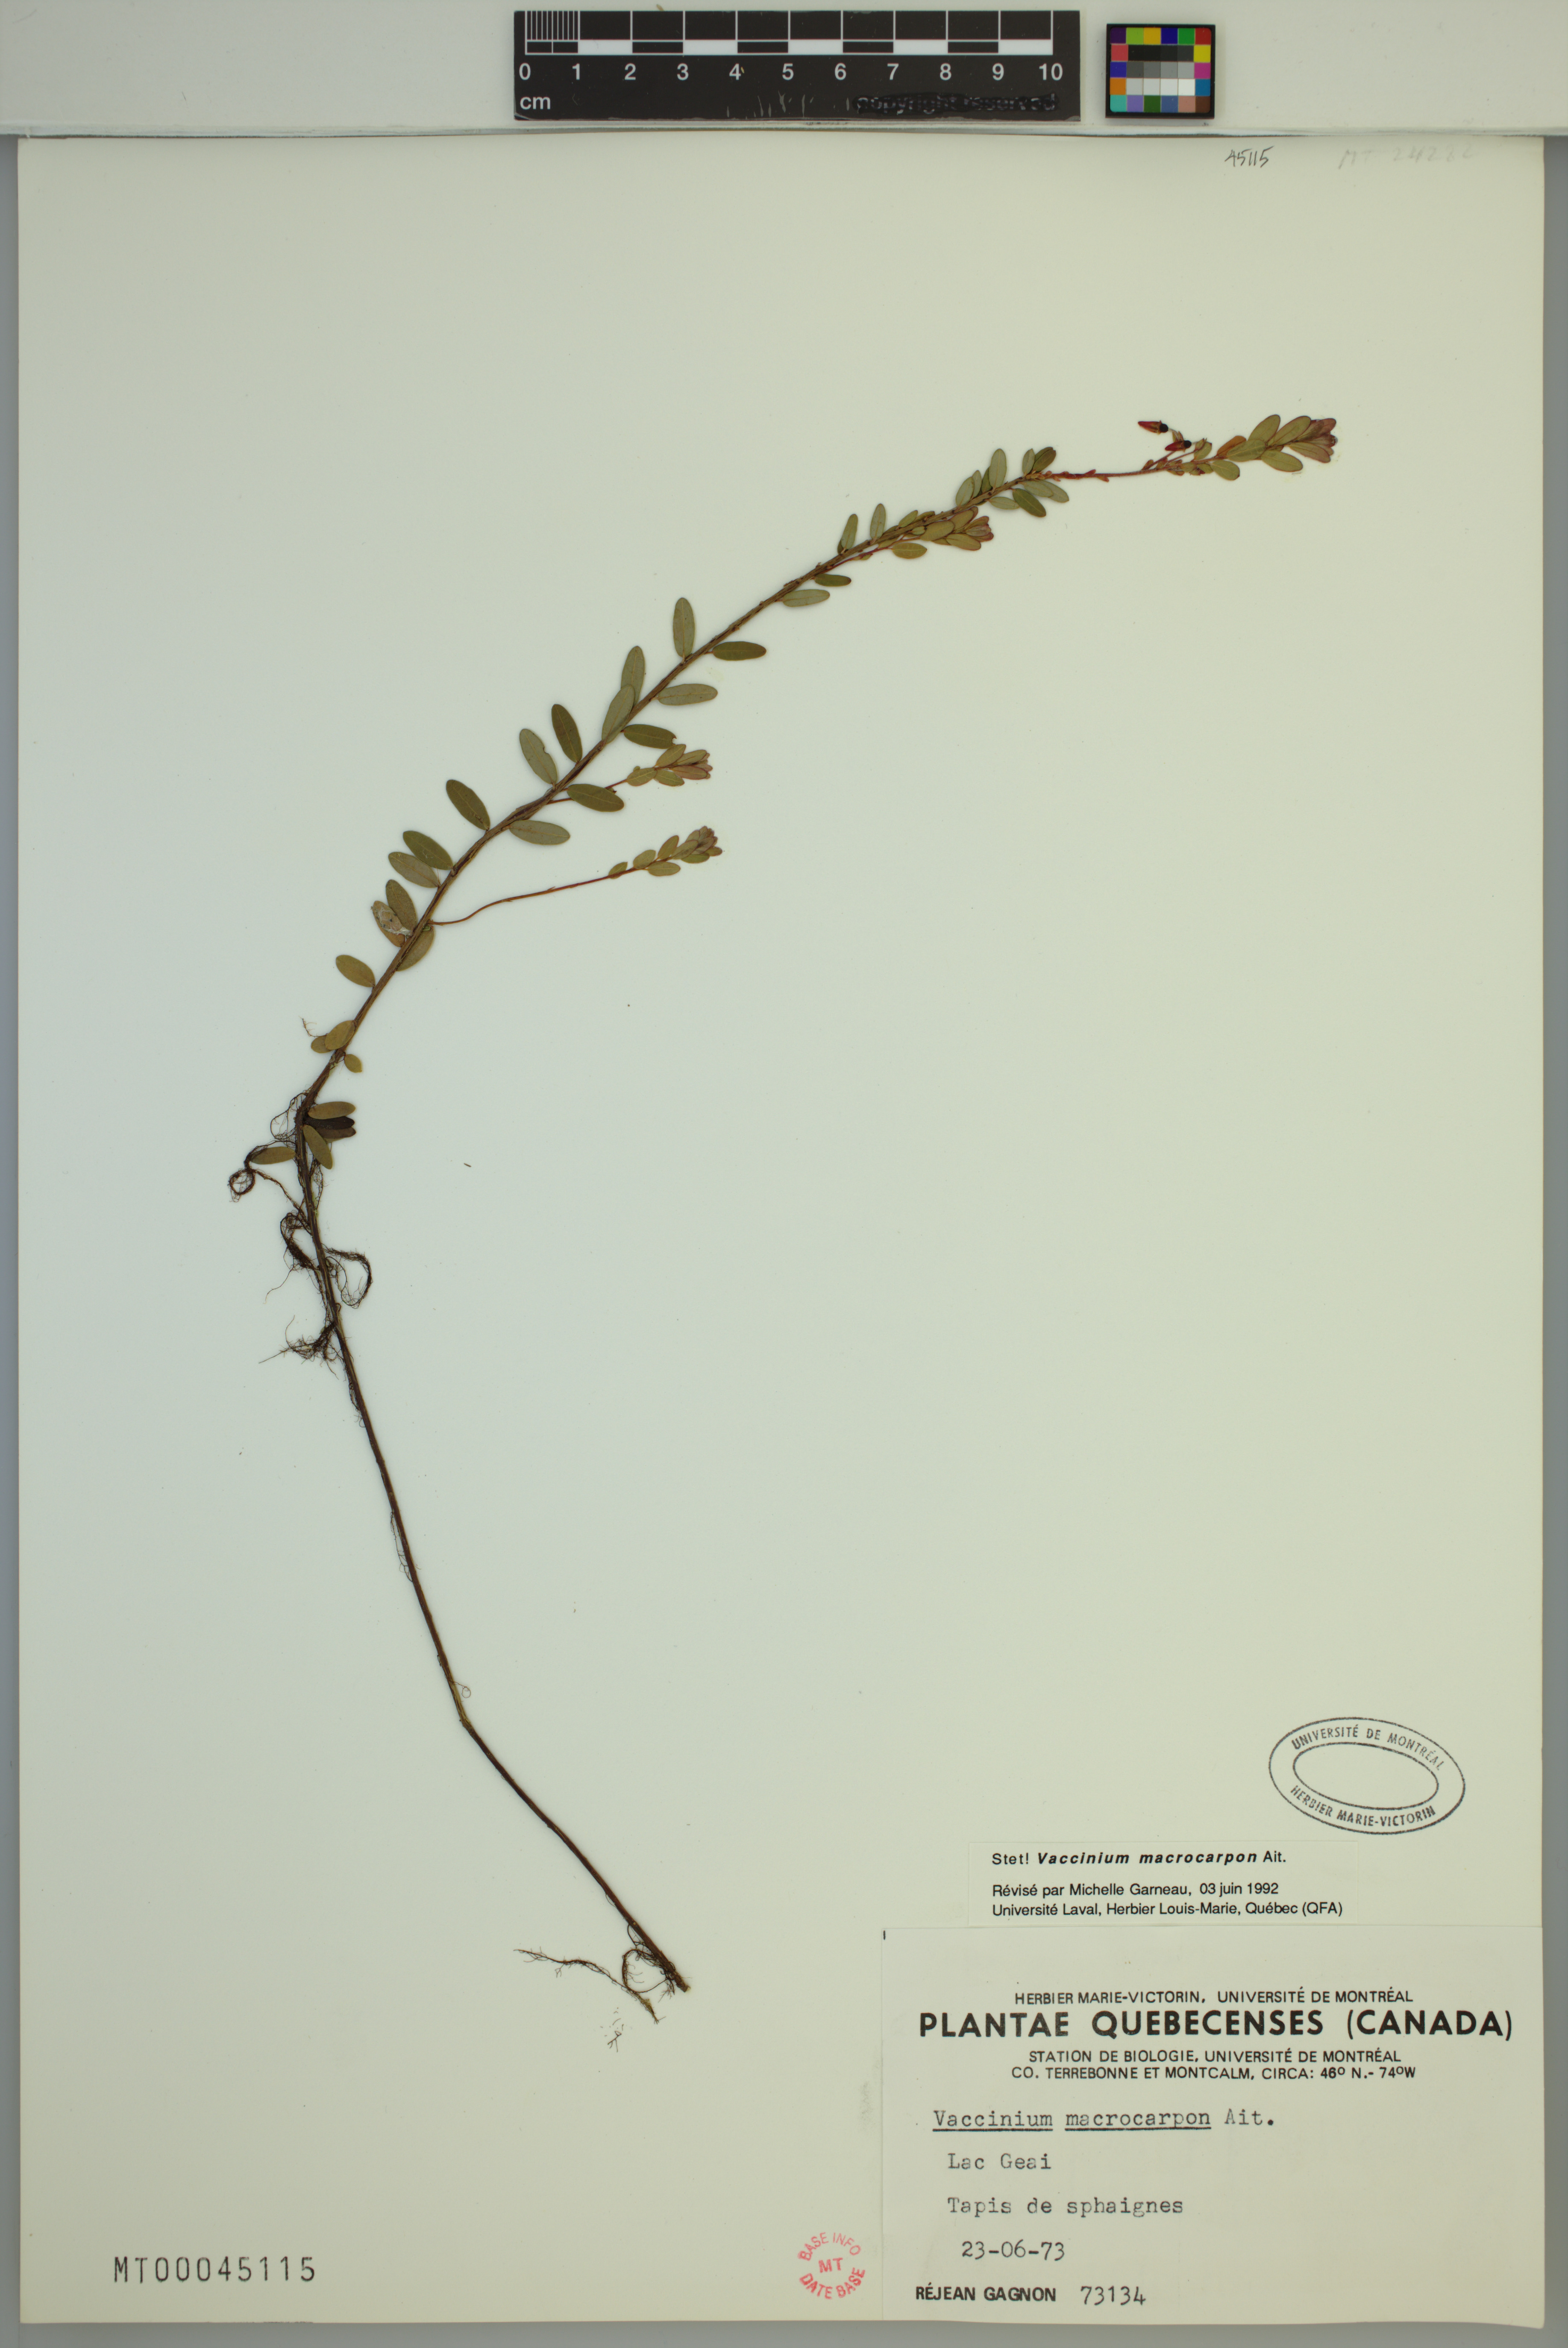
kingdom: Plantae
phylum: Tracheophyta
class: Magnoliopsida
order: Ericales
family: Ericaceae
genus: Vaccinium
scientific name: Vaccinium macrocarpon
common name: American cranberry
